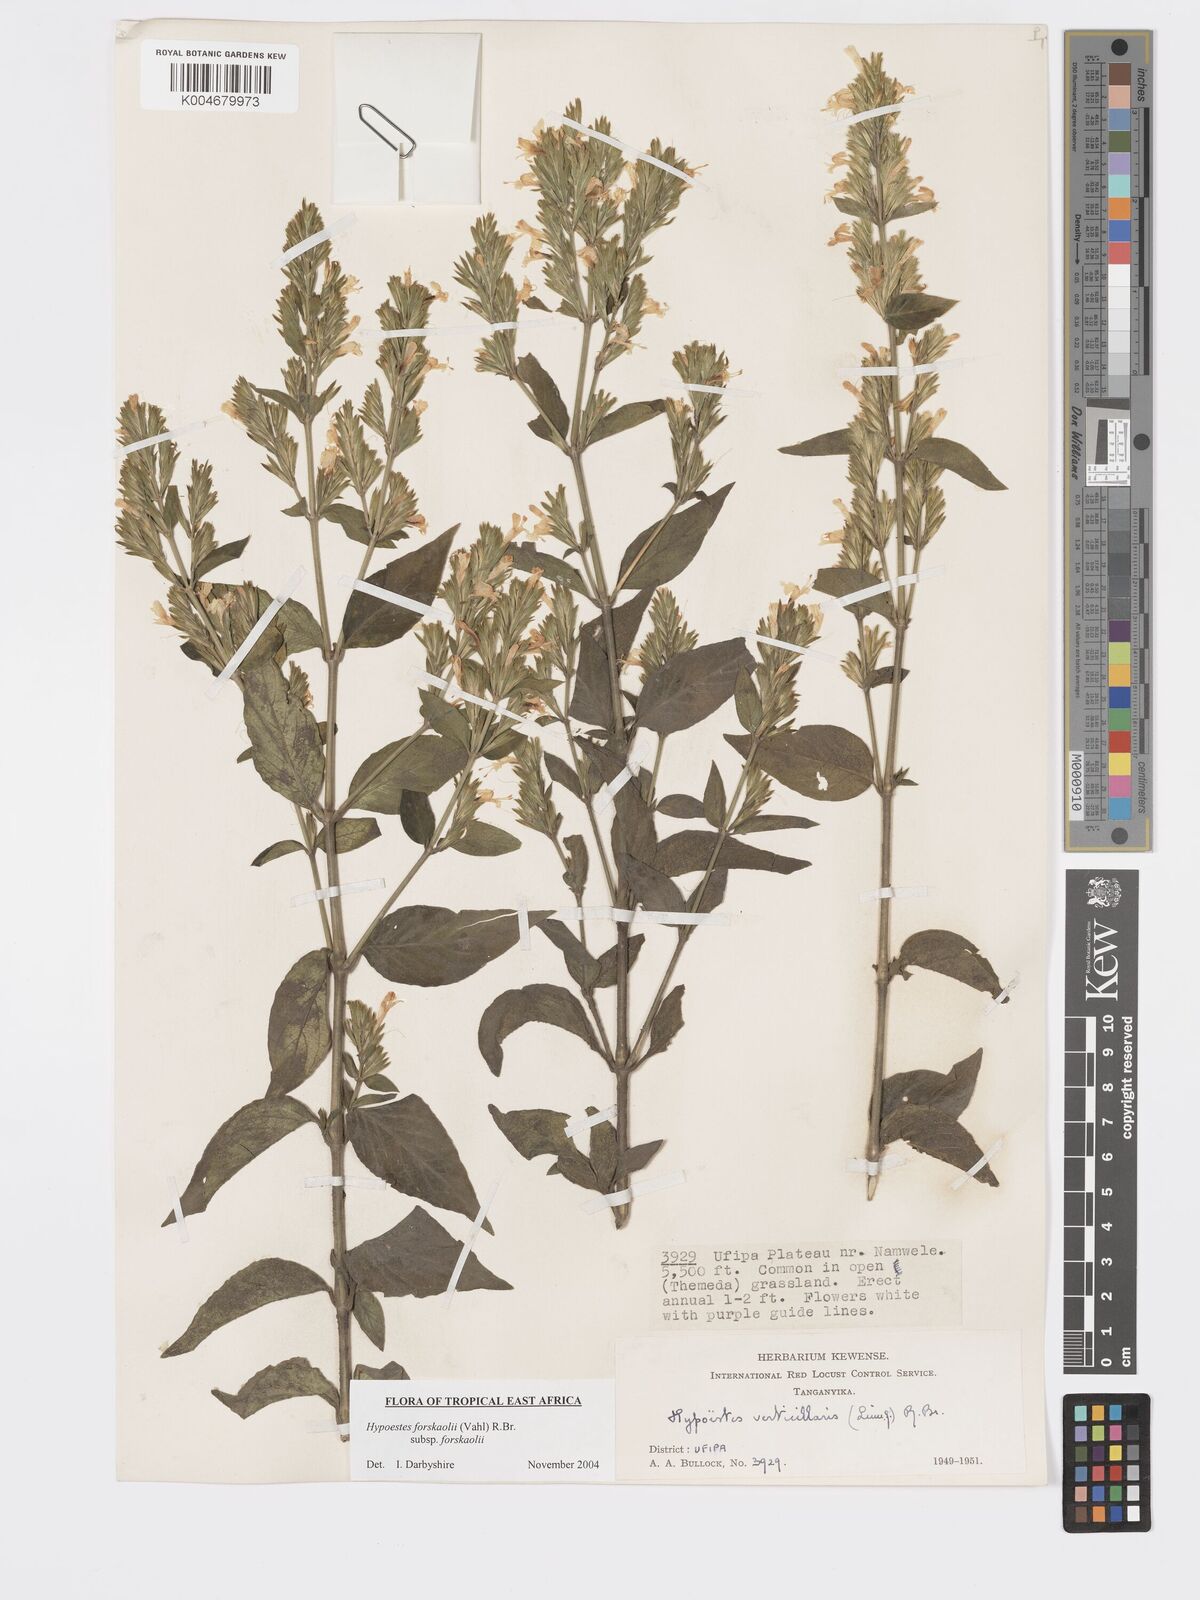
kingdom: Plantae
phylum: Tracheophyta
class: Magnoliopsida
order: Lamiales
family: Acanthaceae
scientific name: Acanthaceae
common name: Acanthaceae
